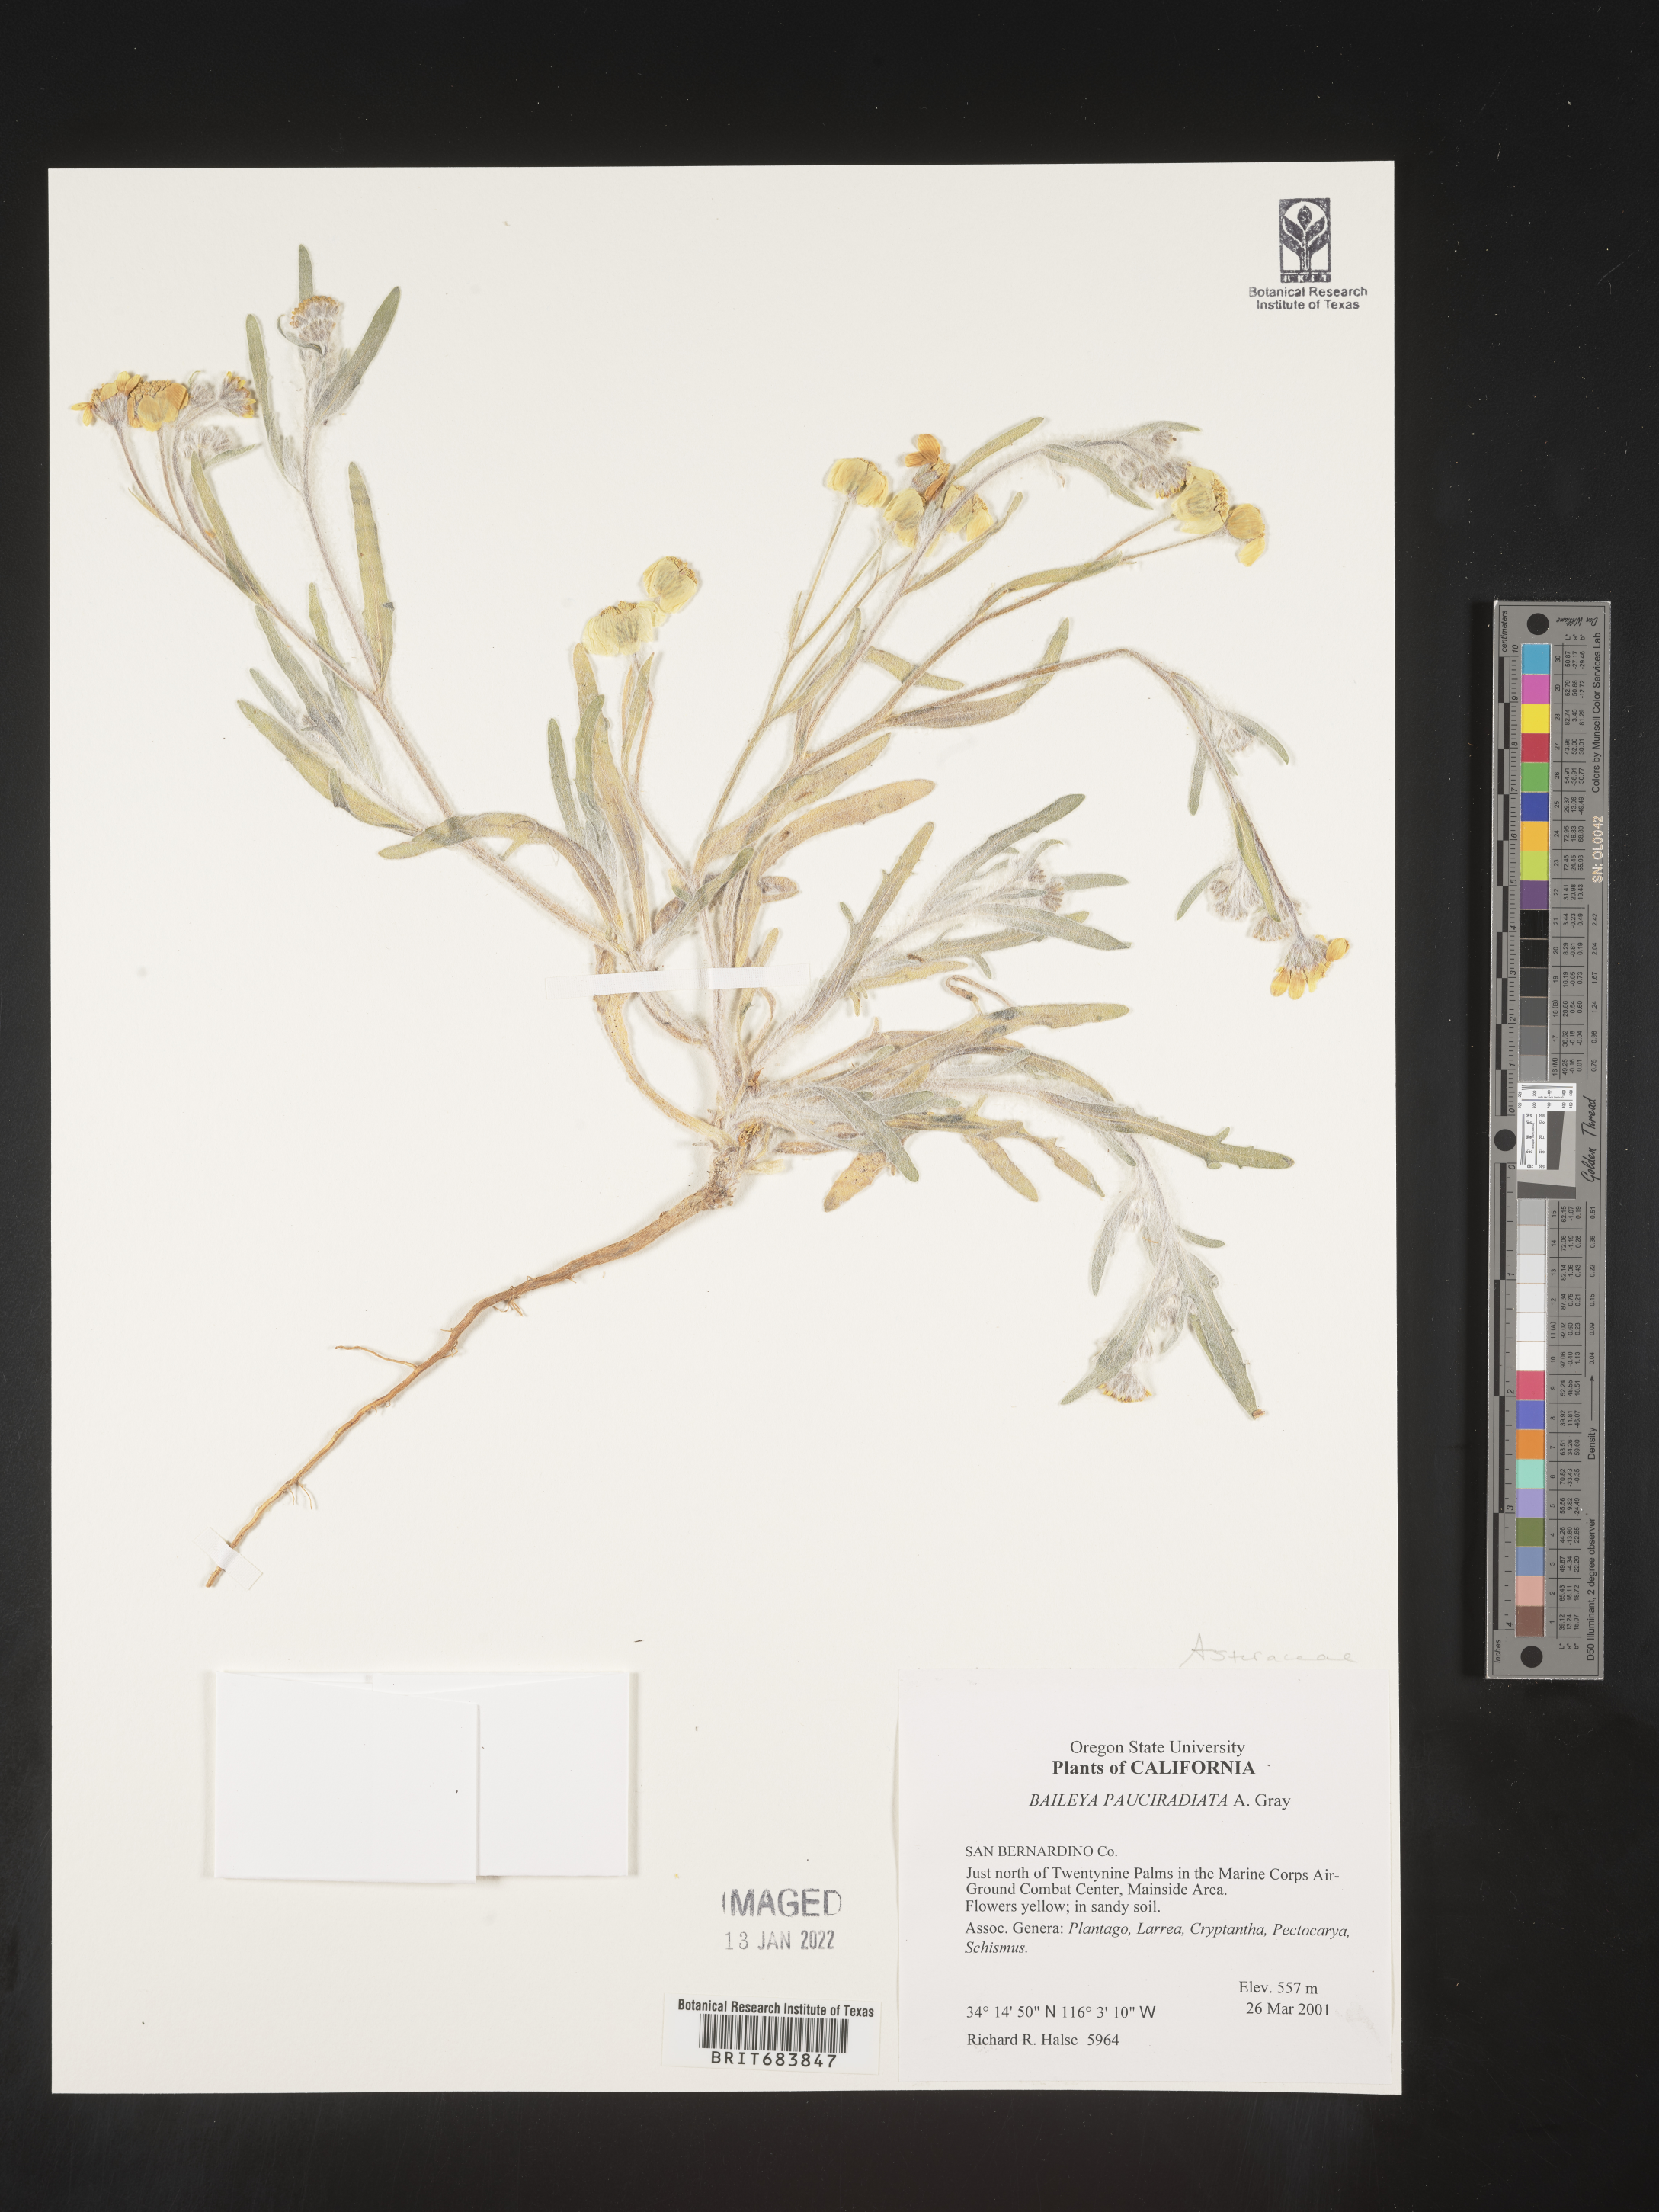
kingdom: Plantae
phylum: Tracheophyta
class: Magnoliopsida
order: Asterales
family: Asteraceae
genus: Baileya
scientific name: Baileya pauciradiata
